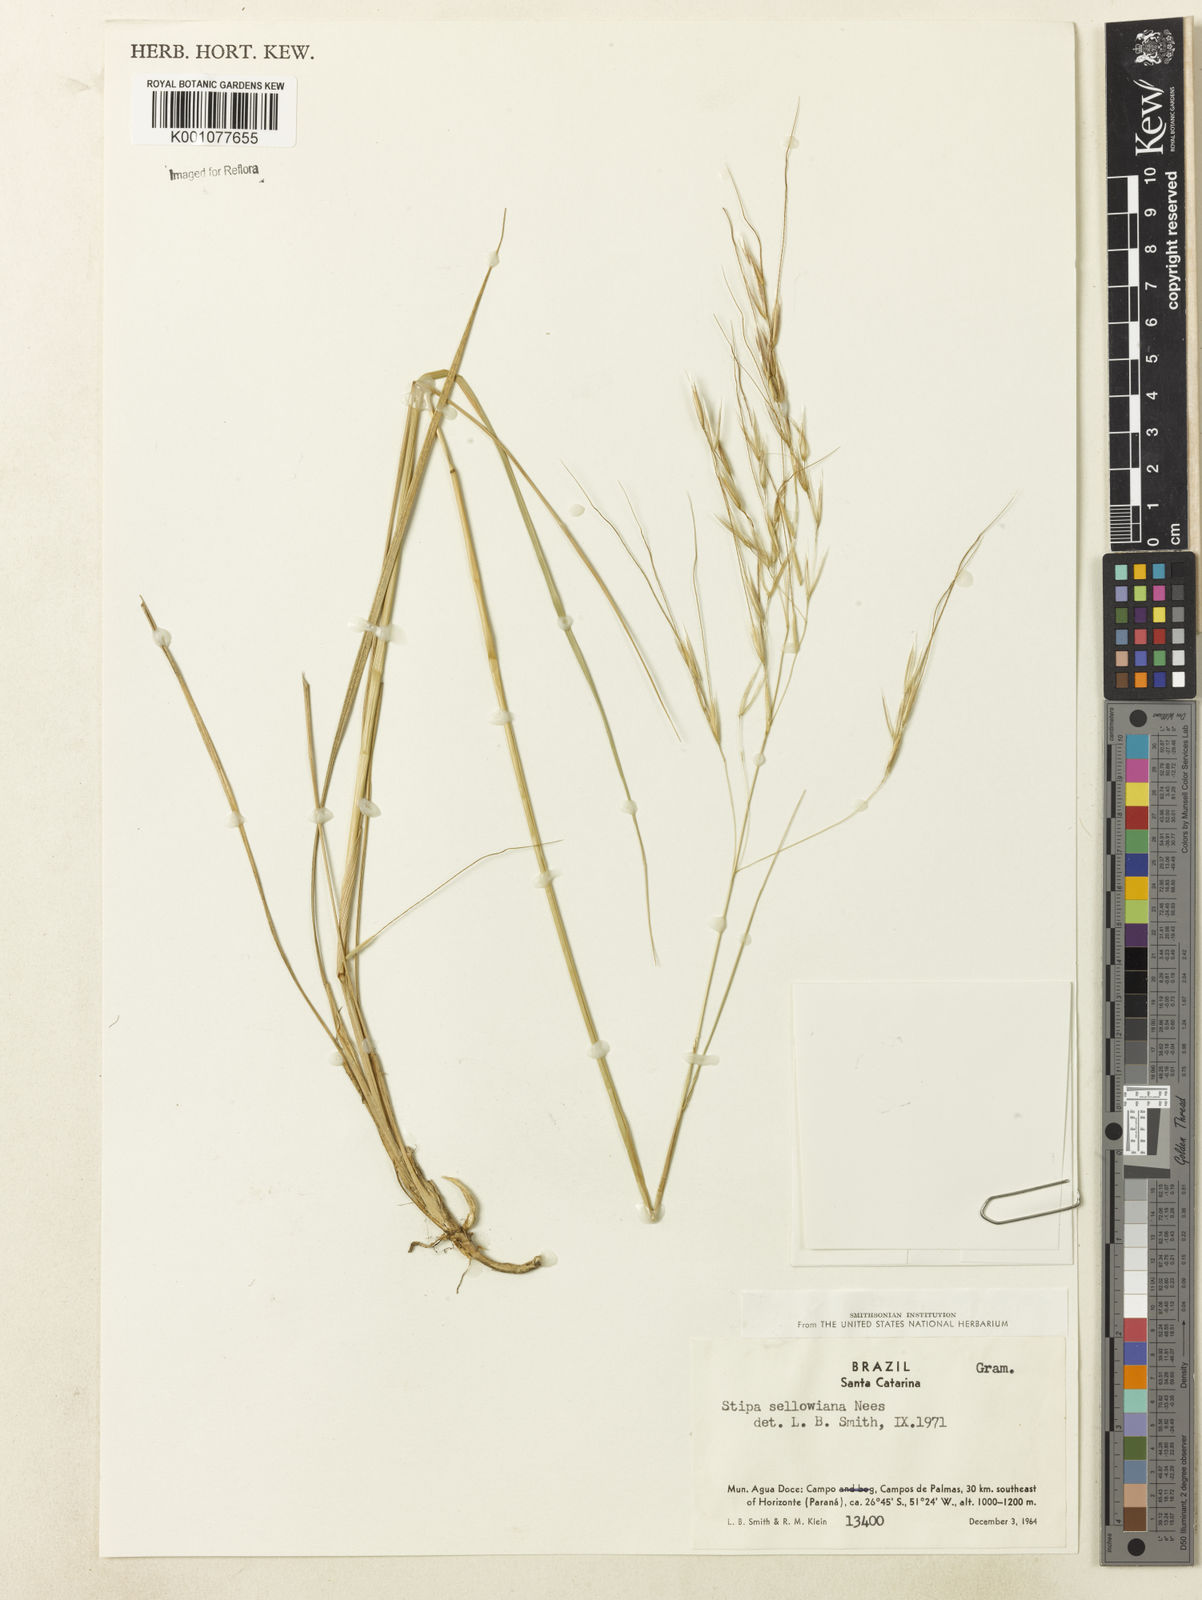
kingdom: Plantae
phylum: Tracheophyta
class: Liliopsida
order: Poales
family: Poaceae
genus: Nassella
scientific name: Nassella
